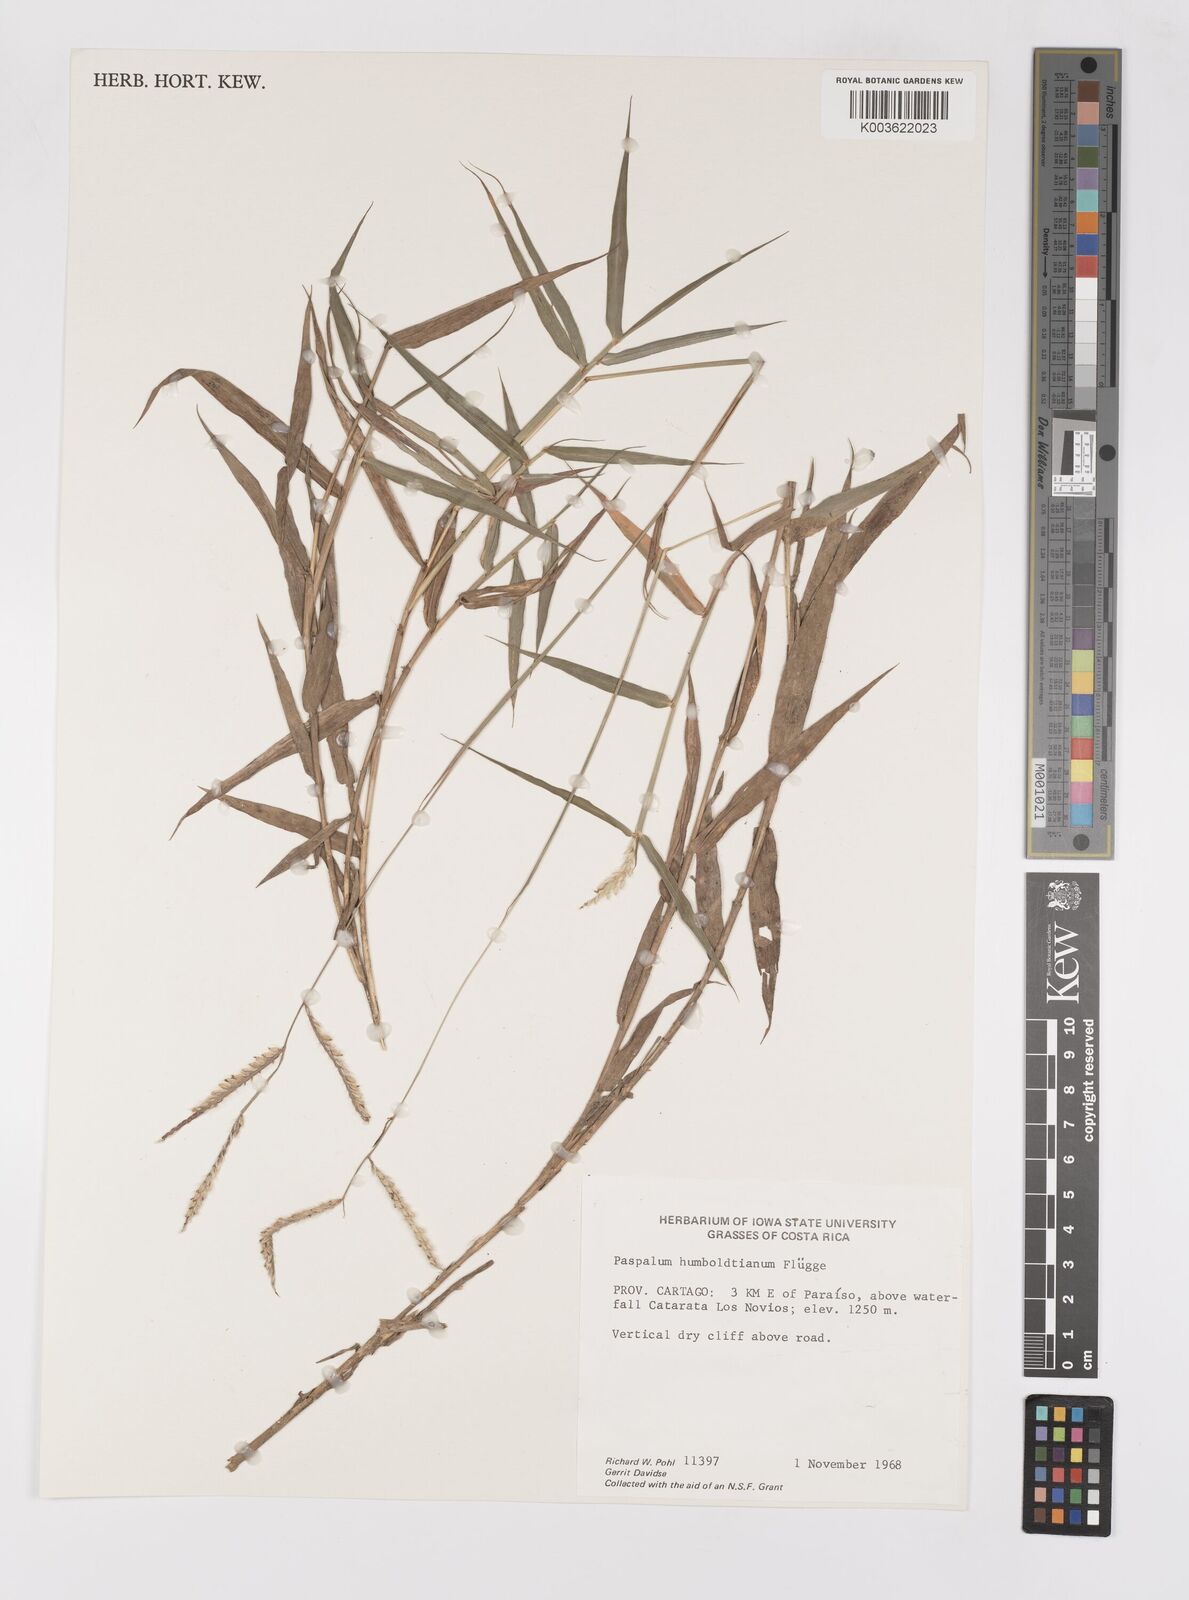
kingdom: Plantae
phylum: Tracheophyta
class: Liliopsida
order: Poales
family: Poaceae
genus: Paspalum
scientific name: Paspalum humboldtianum
